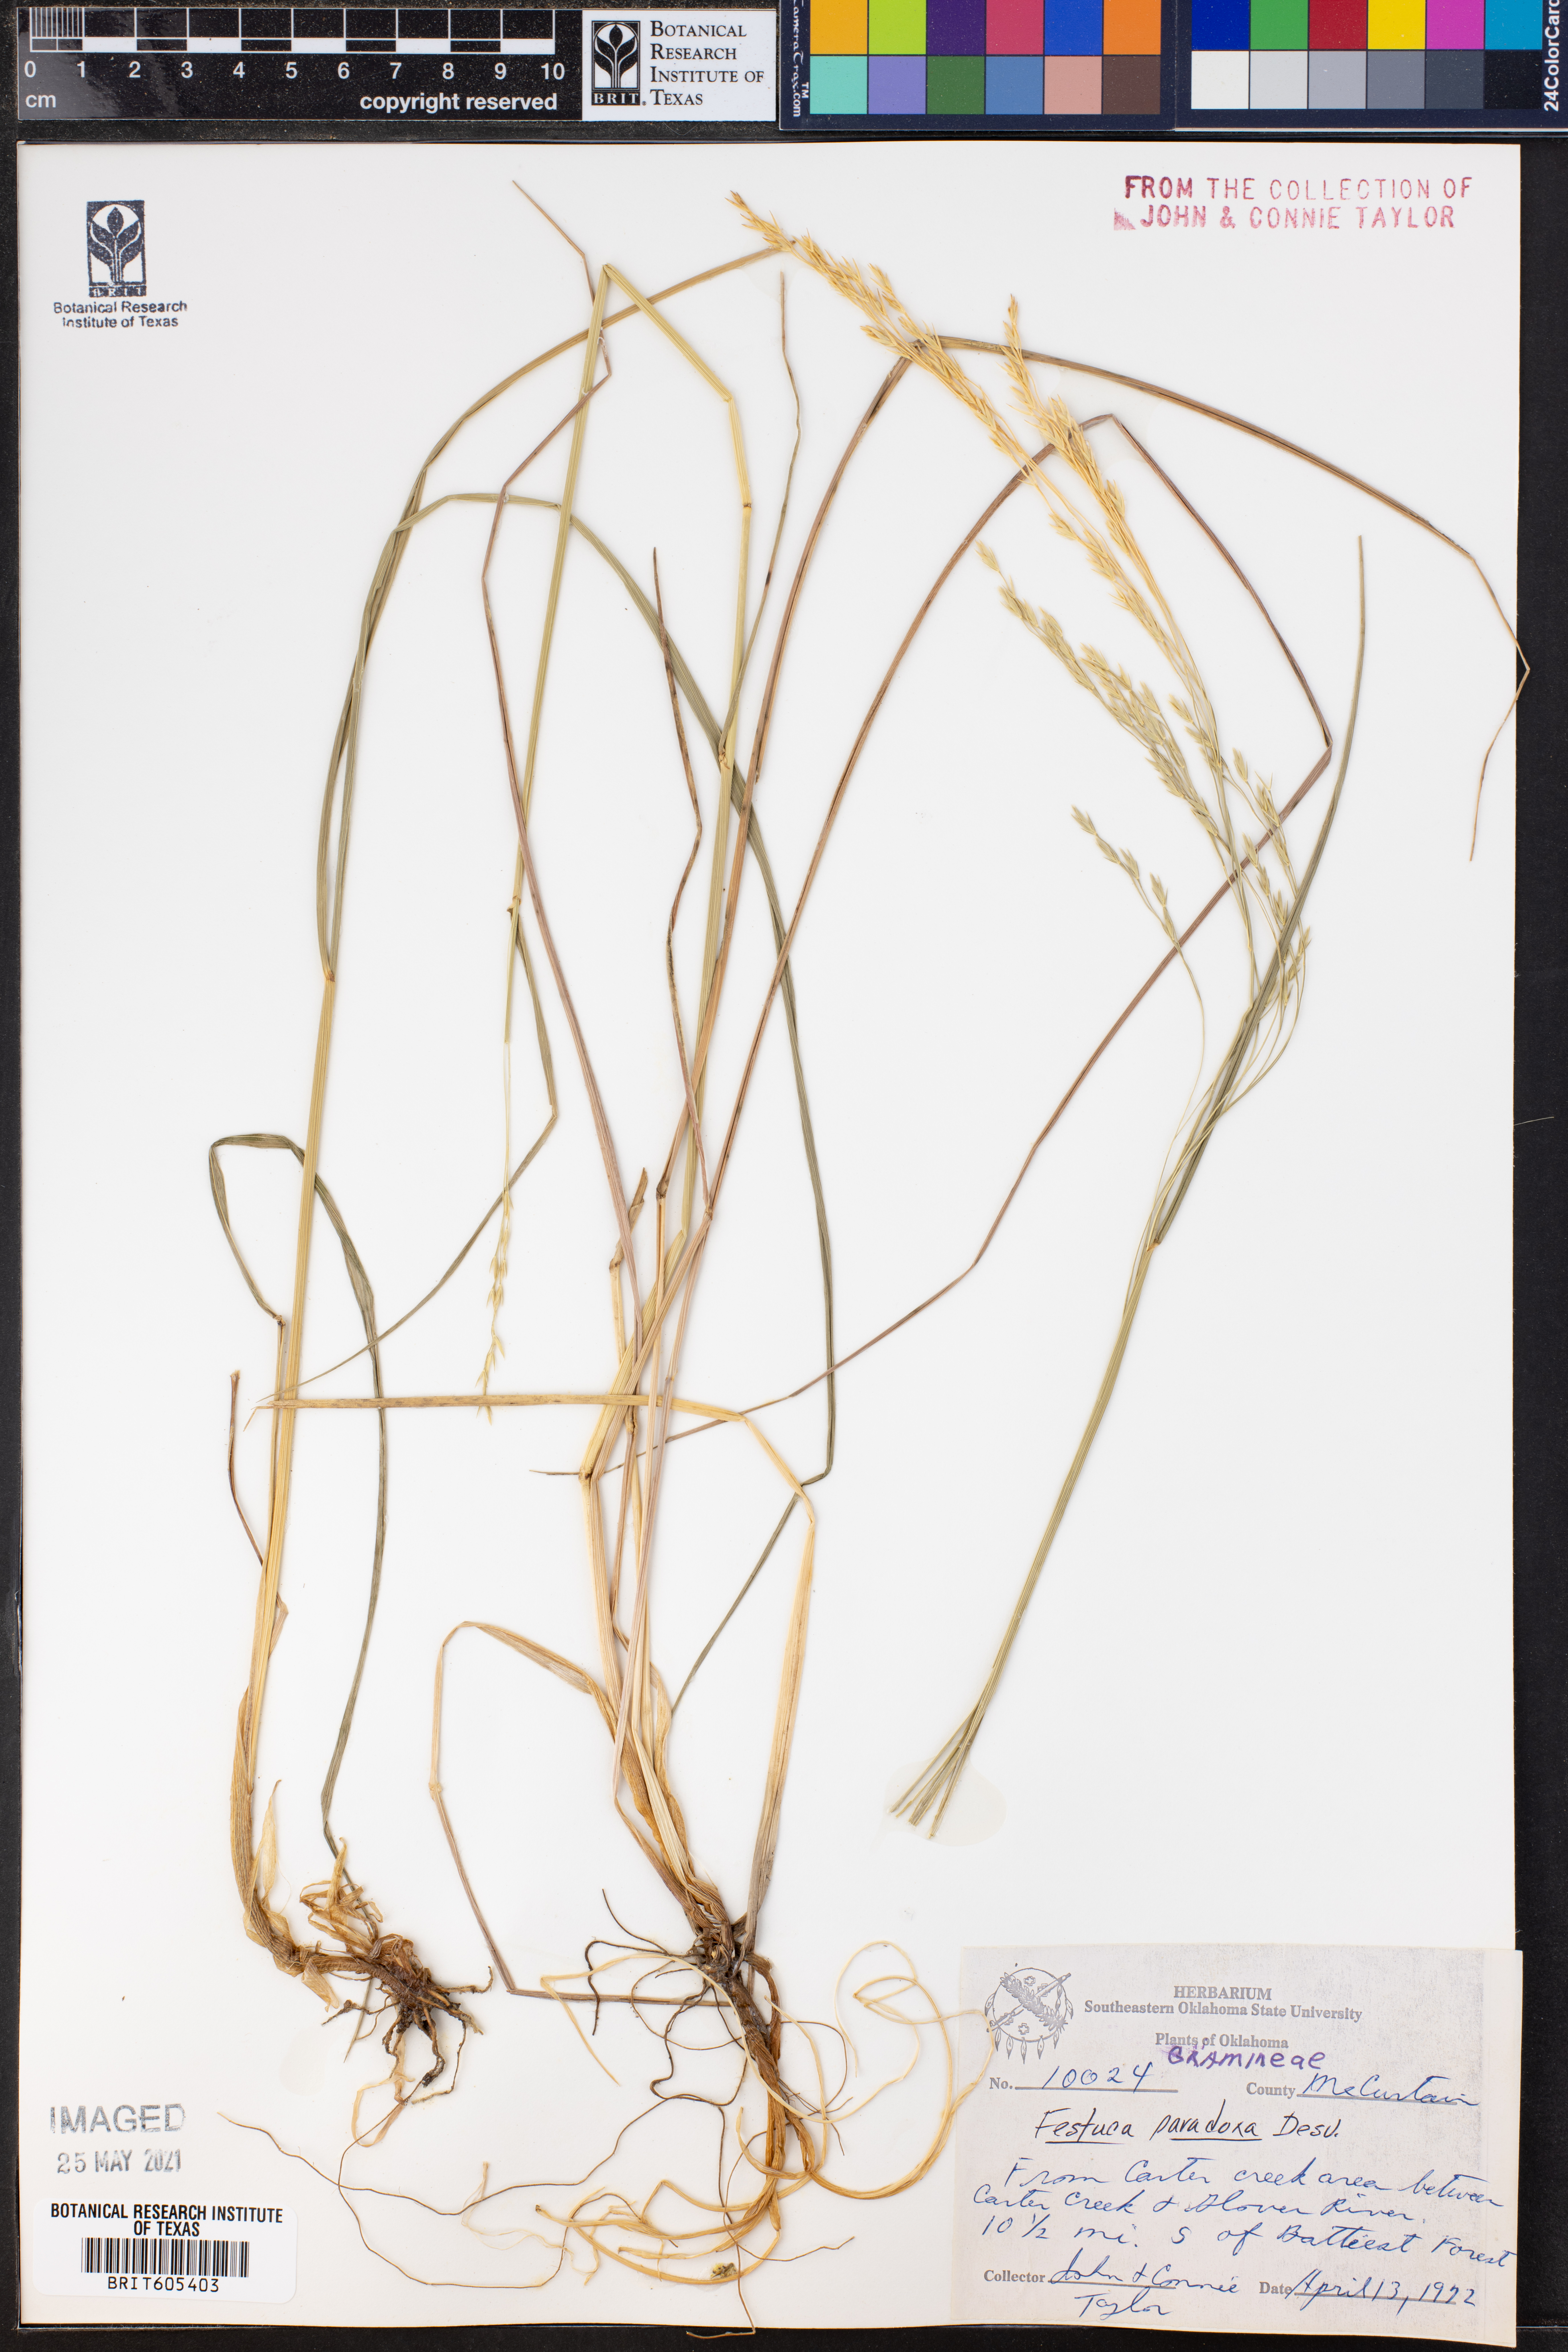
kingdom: Plantae
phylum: Tracheophyta
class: Liliopsida
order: Poales
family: Poaceae
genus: Festuca
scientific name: Festuca paradoxa
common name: Cluster fescue
